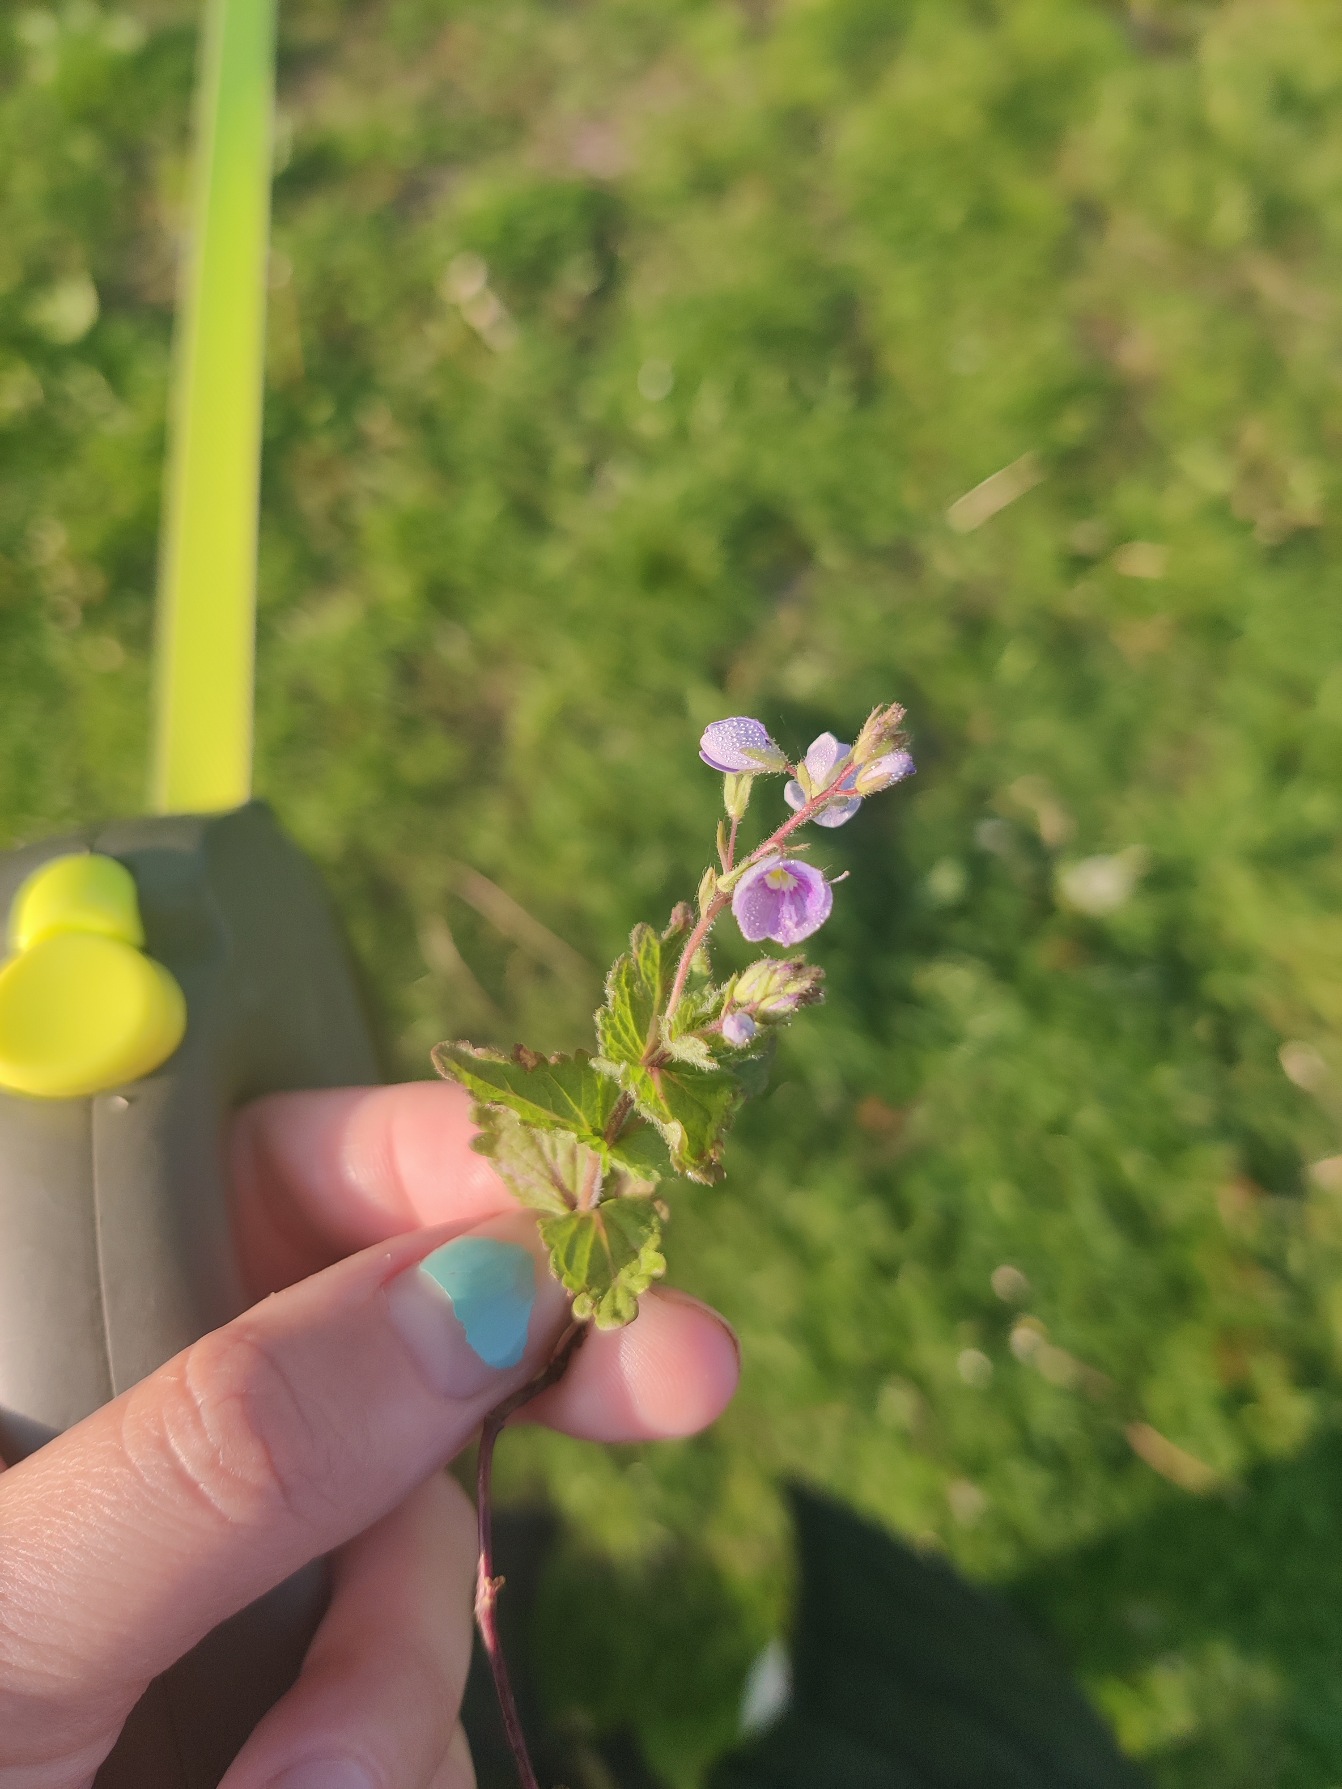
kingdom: Plantae
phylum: Tracheophyta
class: Magnoliopsida
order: Lamiales
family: Plantaginaceae
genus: Veronica
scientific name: Veronica chamaedrys
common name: Tveskægget ærenpris
